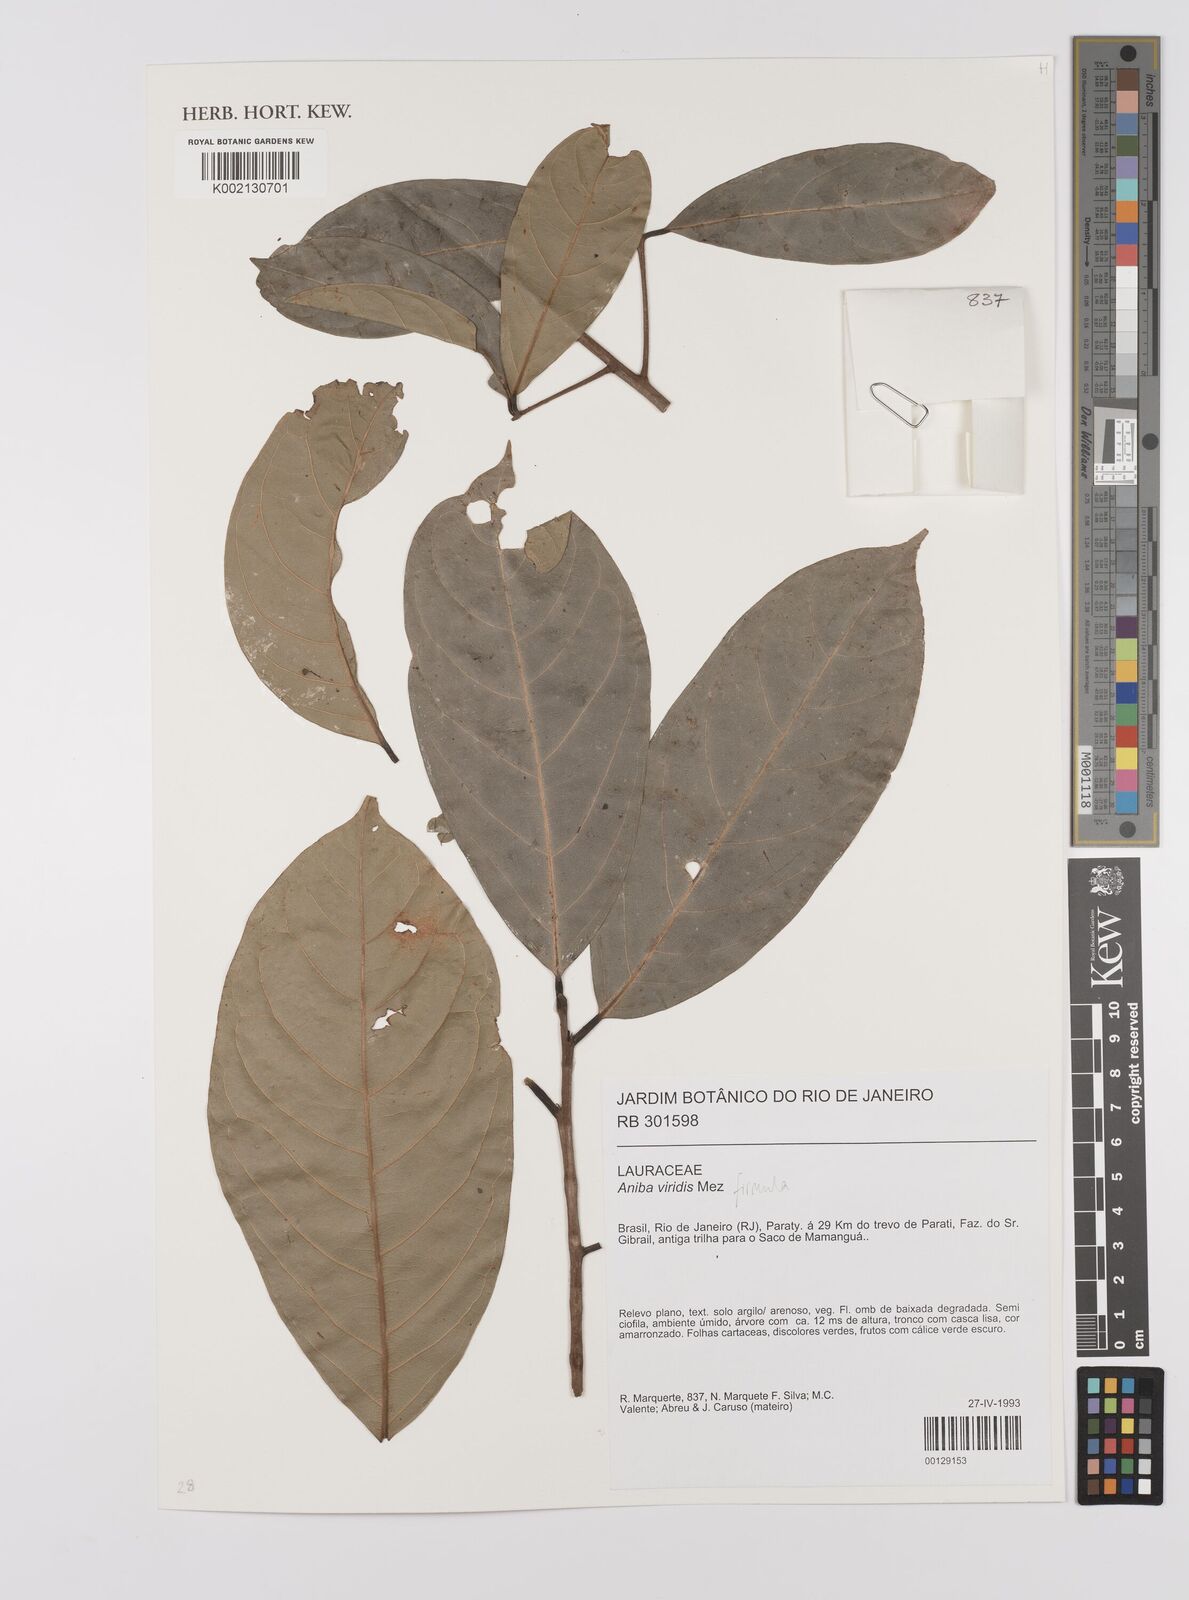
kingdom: Plantae
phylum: Tracheophyta
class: Magnoliopsida
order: Laurales
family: Lauraceae
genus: Aniba
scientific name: Aniba firmula
